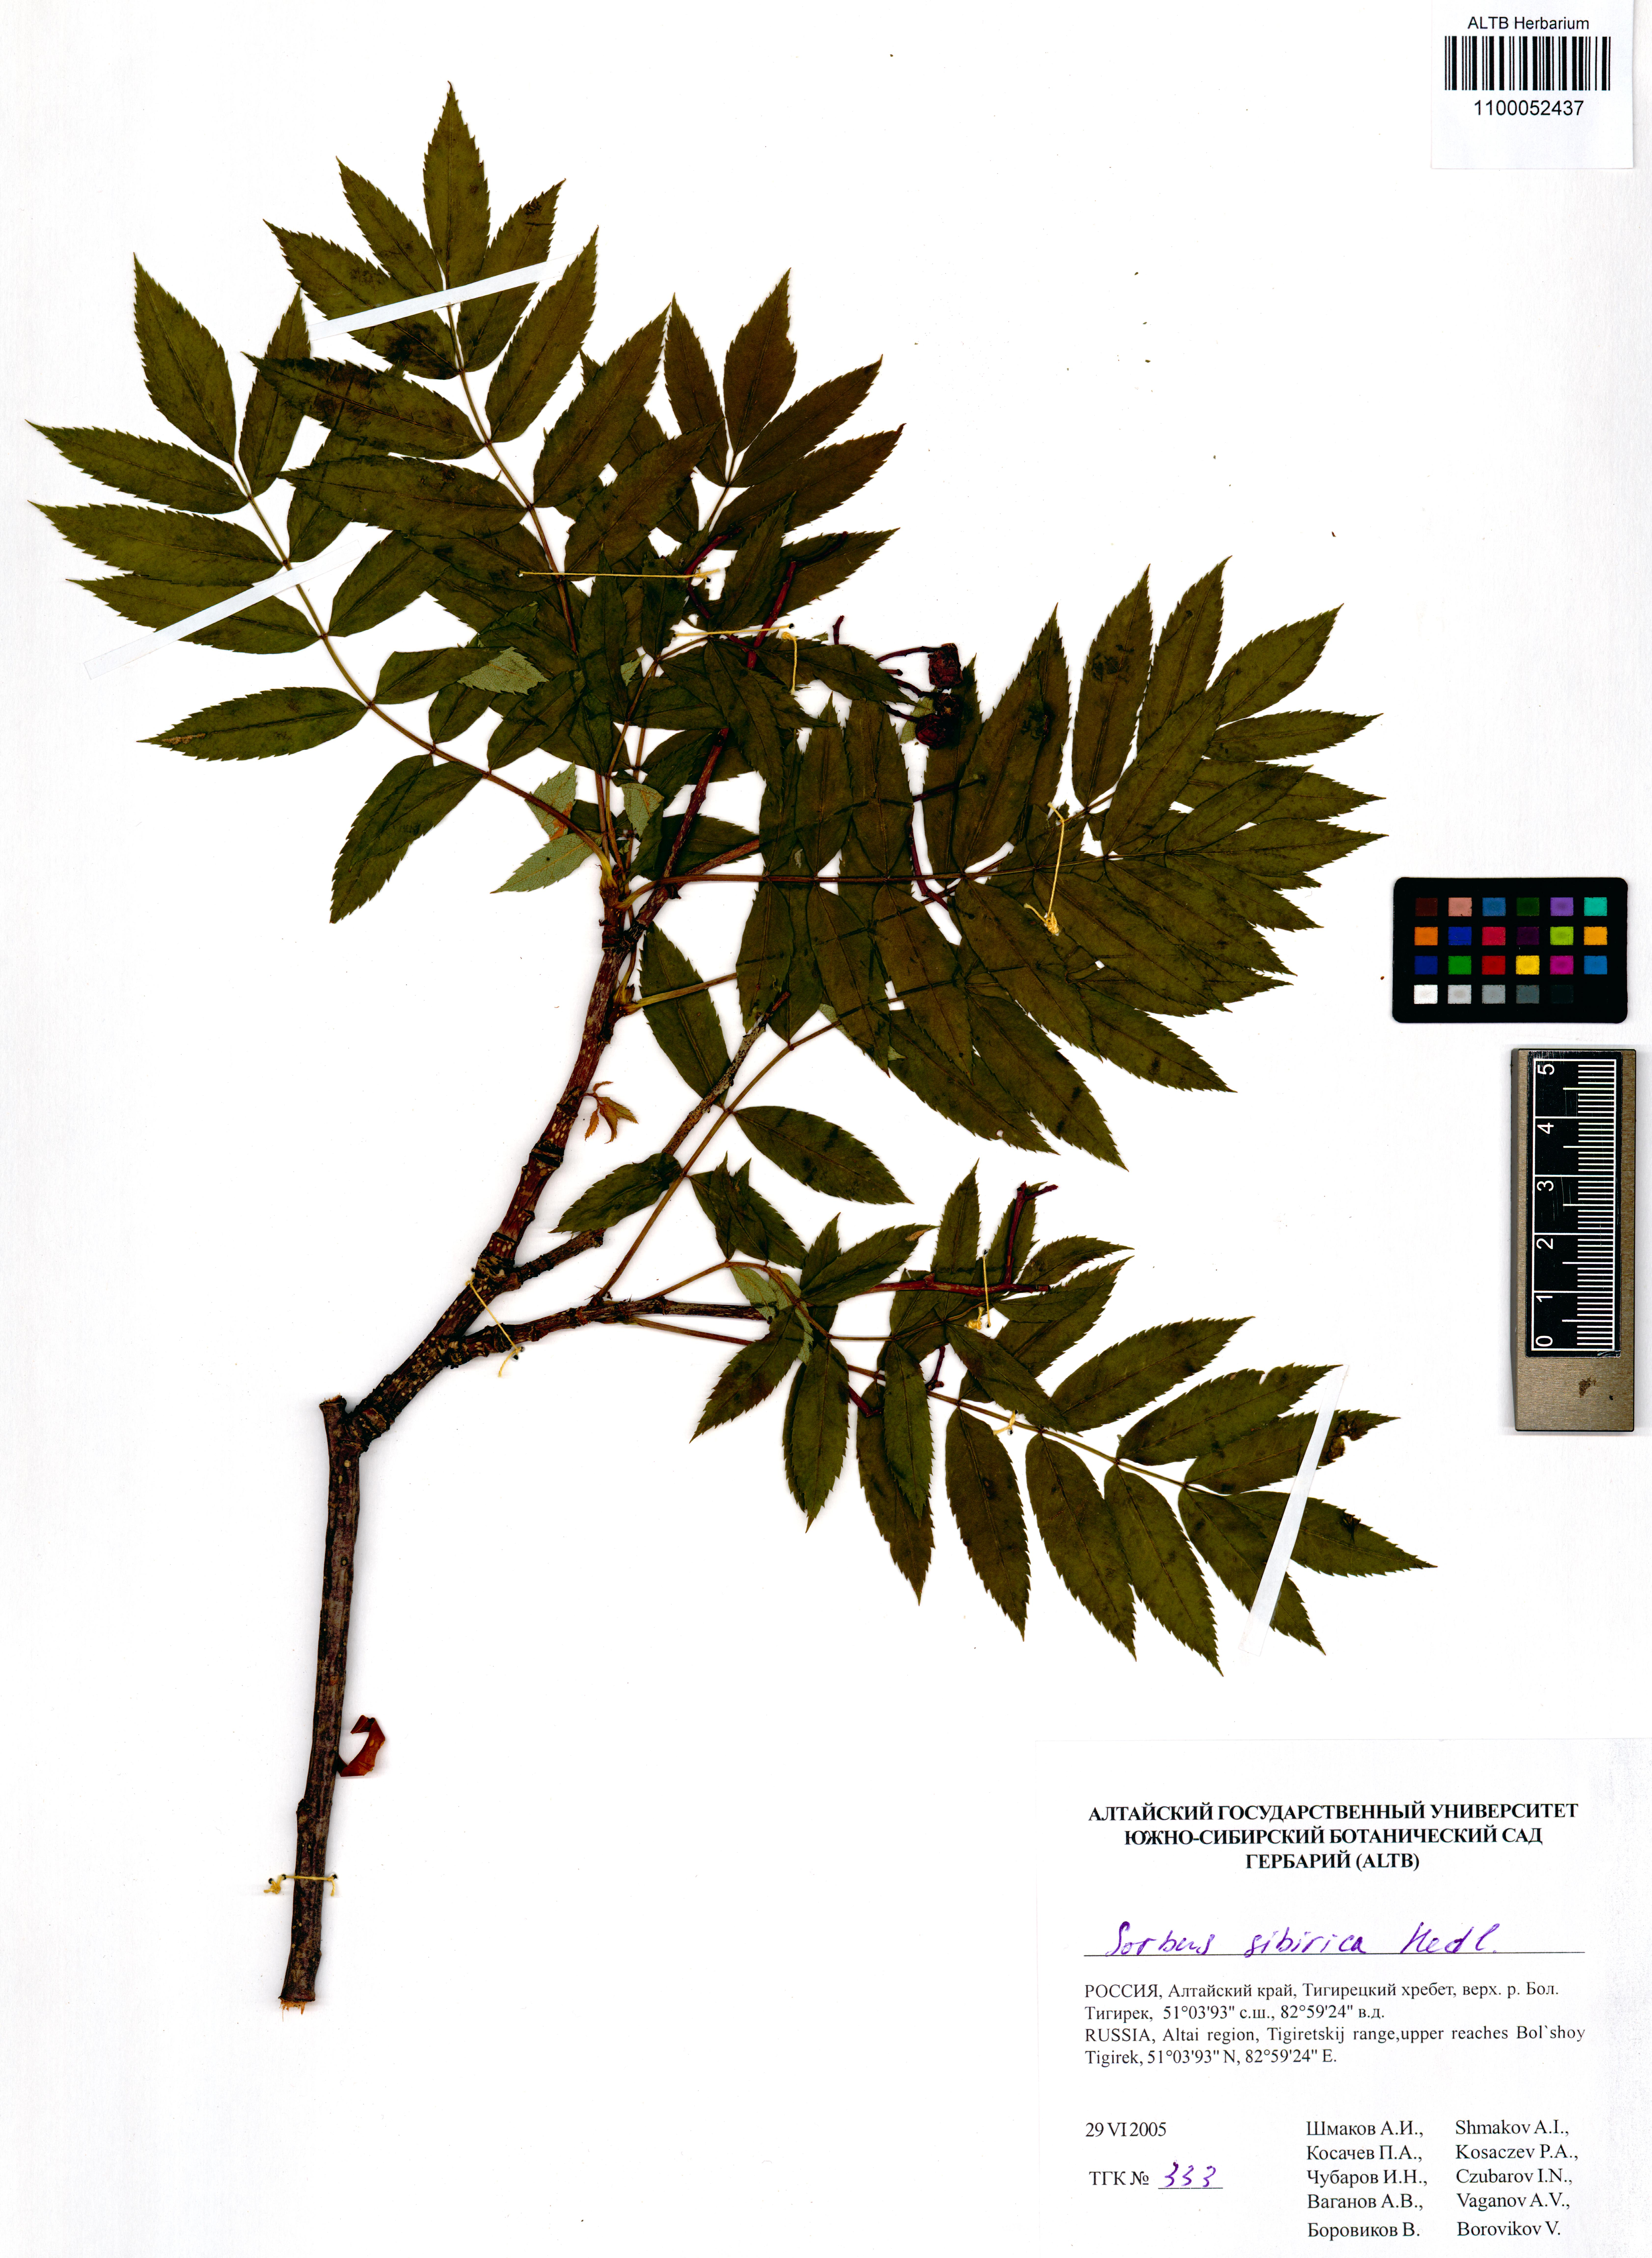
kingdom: Plantae
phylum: Tracheophyta
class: Magnoliopsida
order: Rosales
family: Rosaceae
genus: Sorbus
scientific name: Sorbus aucuparia
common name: Rowan
